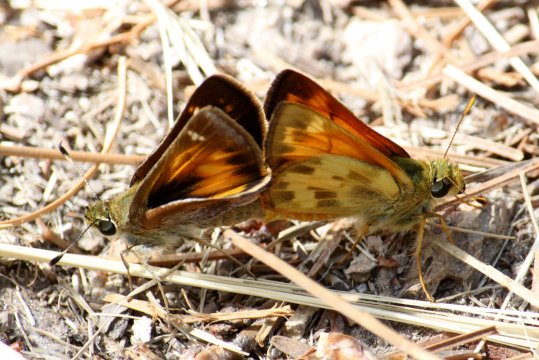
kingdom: Animalia
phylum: Arthropoda
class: Insecta
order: Lepidoptera
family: Hesperiidae
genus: Lon
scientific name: Lon taxiles
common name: Taxiles Skipper
